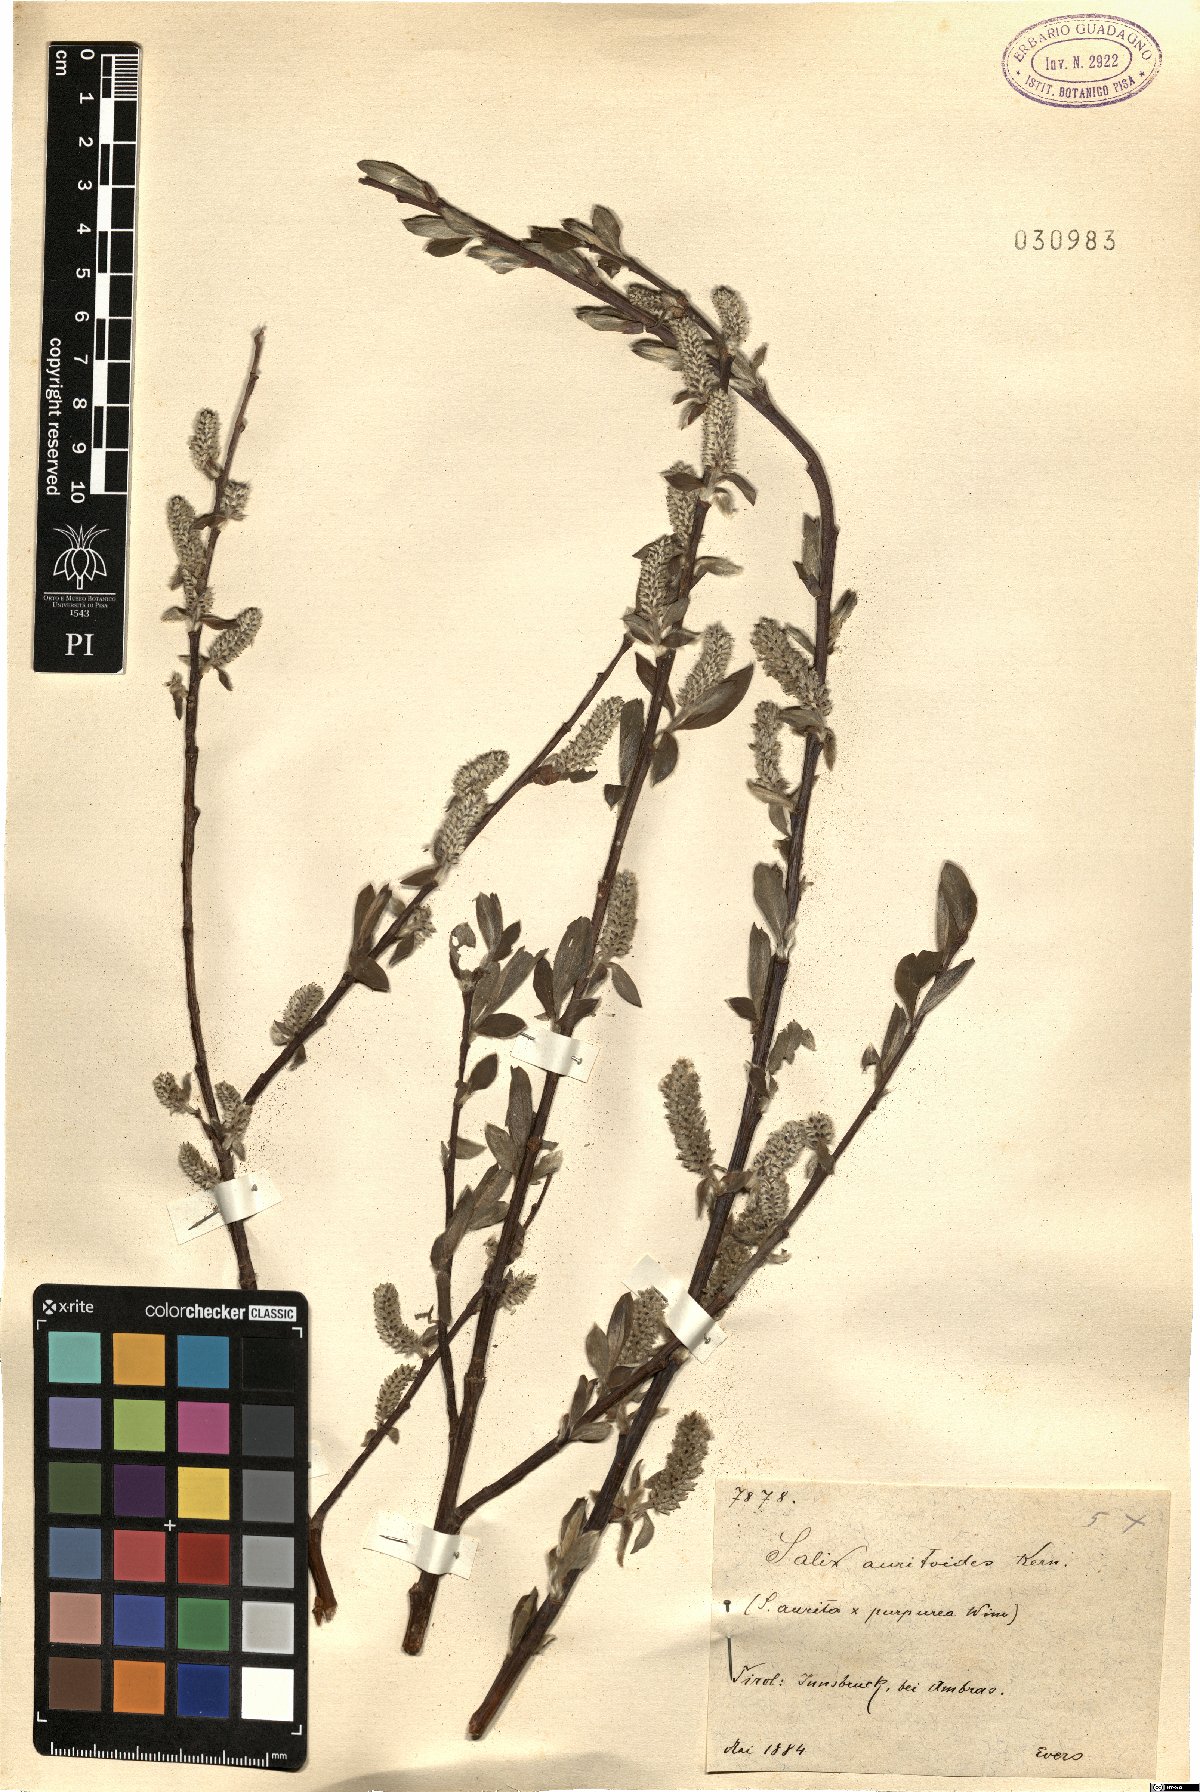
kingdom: Plantae
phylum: Tracheophyta
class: Magnoliopsida
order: Malpighiales
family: Salicaceae
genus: Salix
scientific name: Salix dichroa
